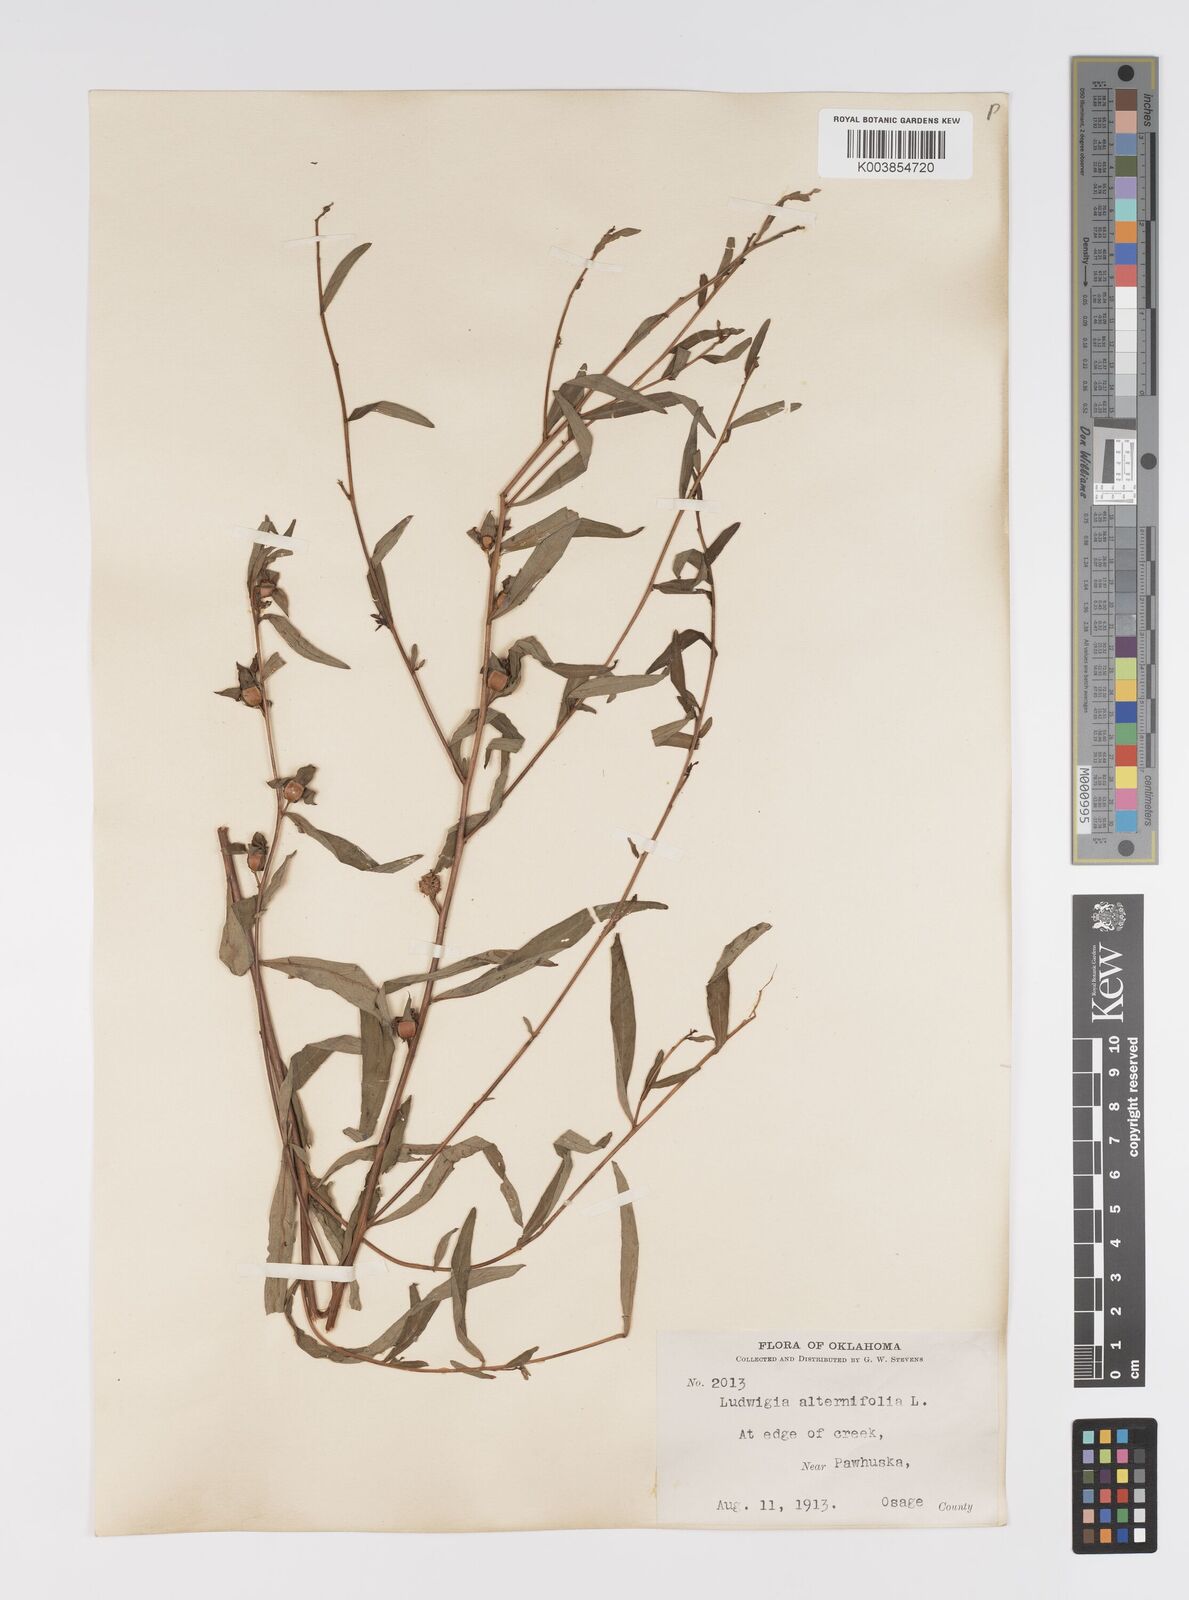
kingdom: Plantae
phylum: Tracheophyta
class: Magnoliopsida
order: Myrtales
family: Onagraceae
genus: Ludwigia
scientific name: Ludwigia alternifolia
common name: Rattlebox
